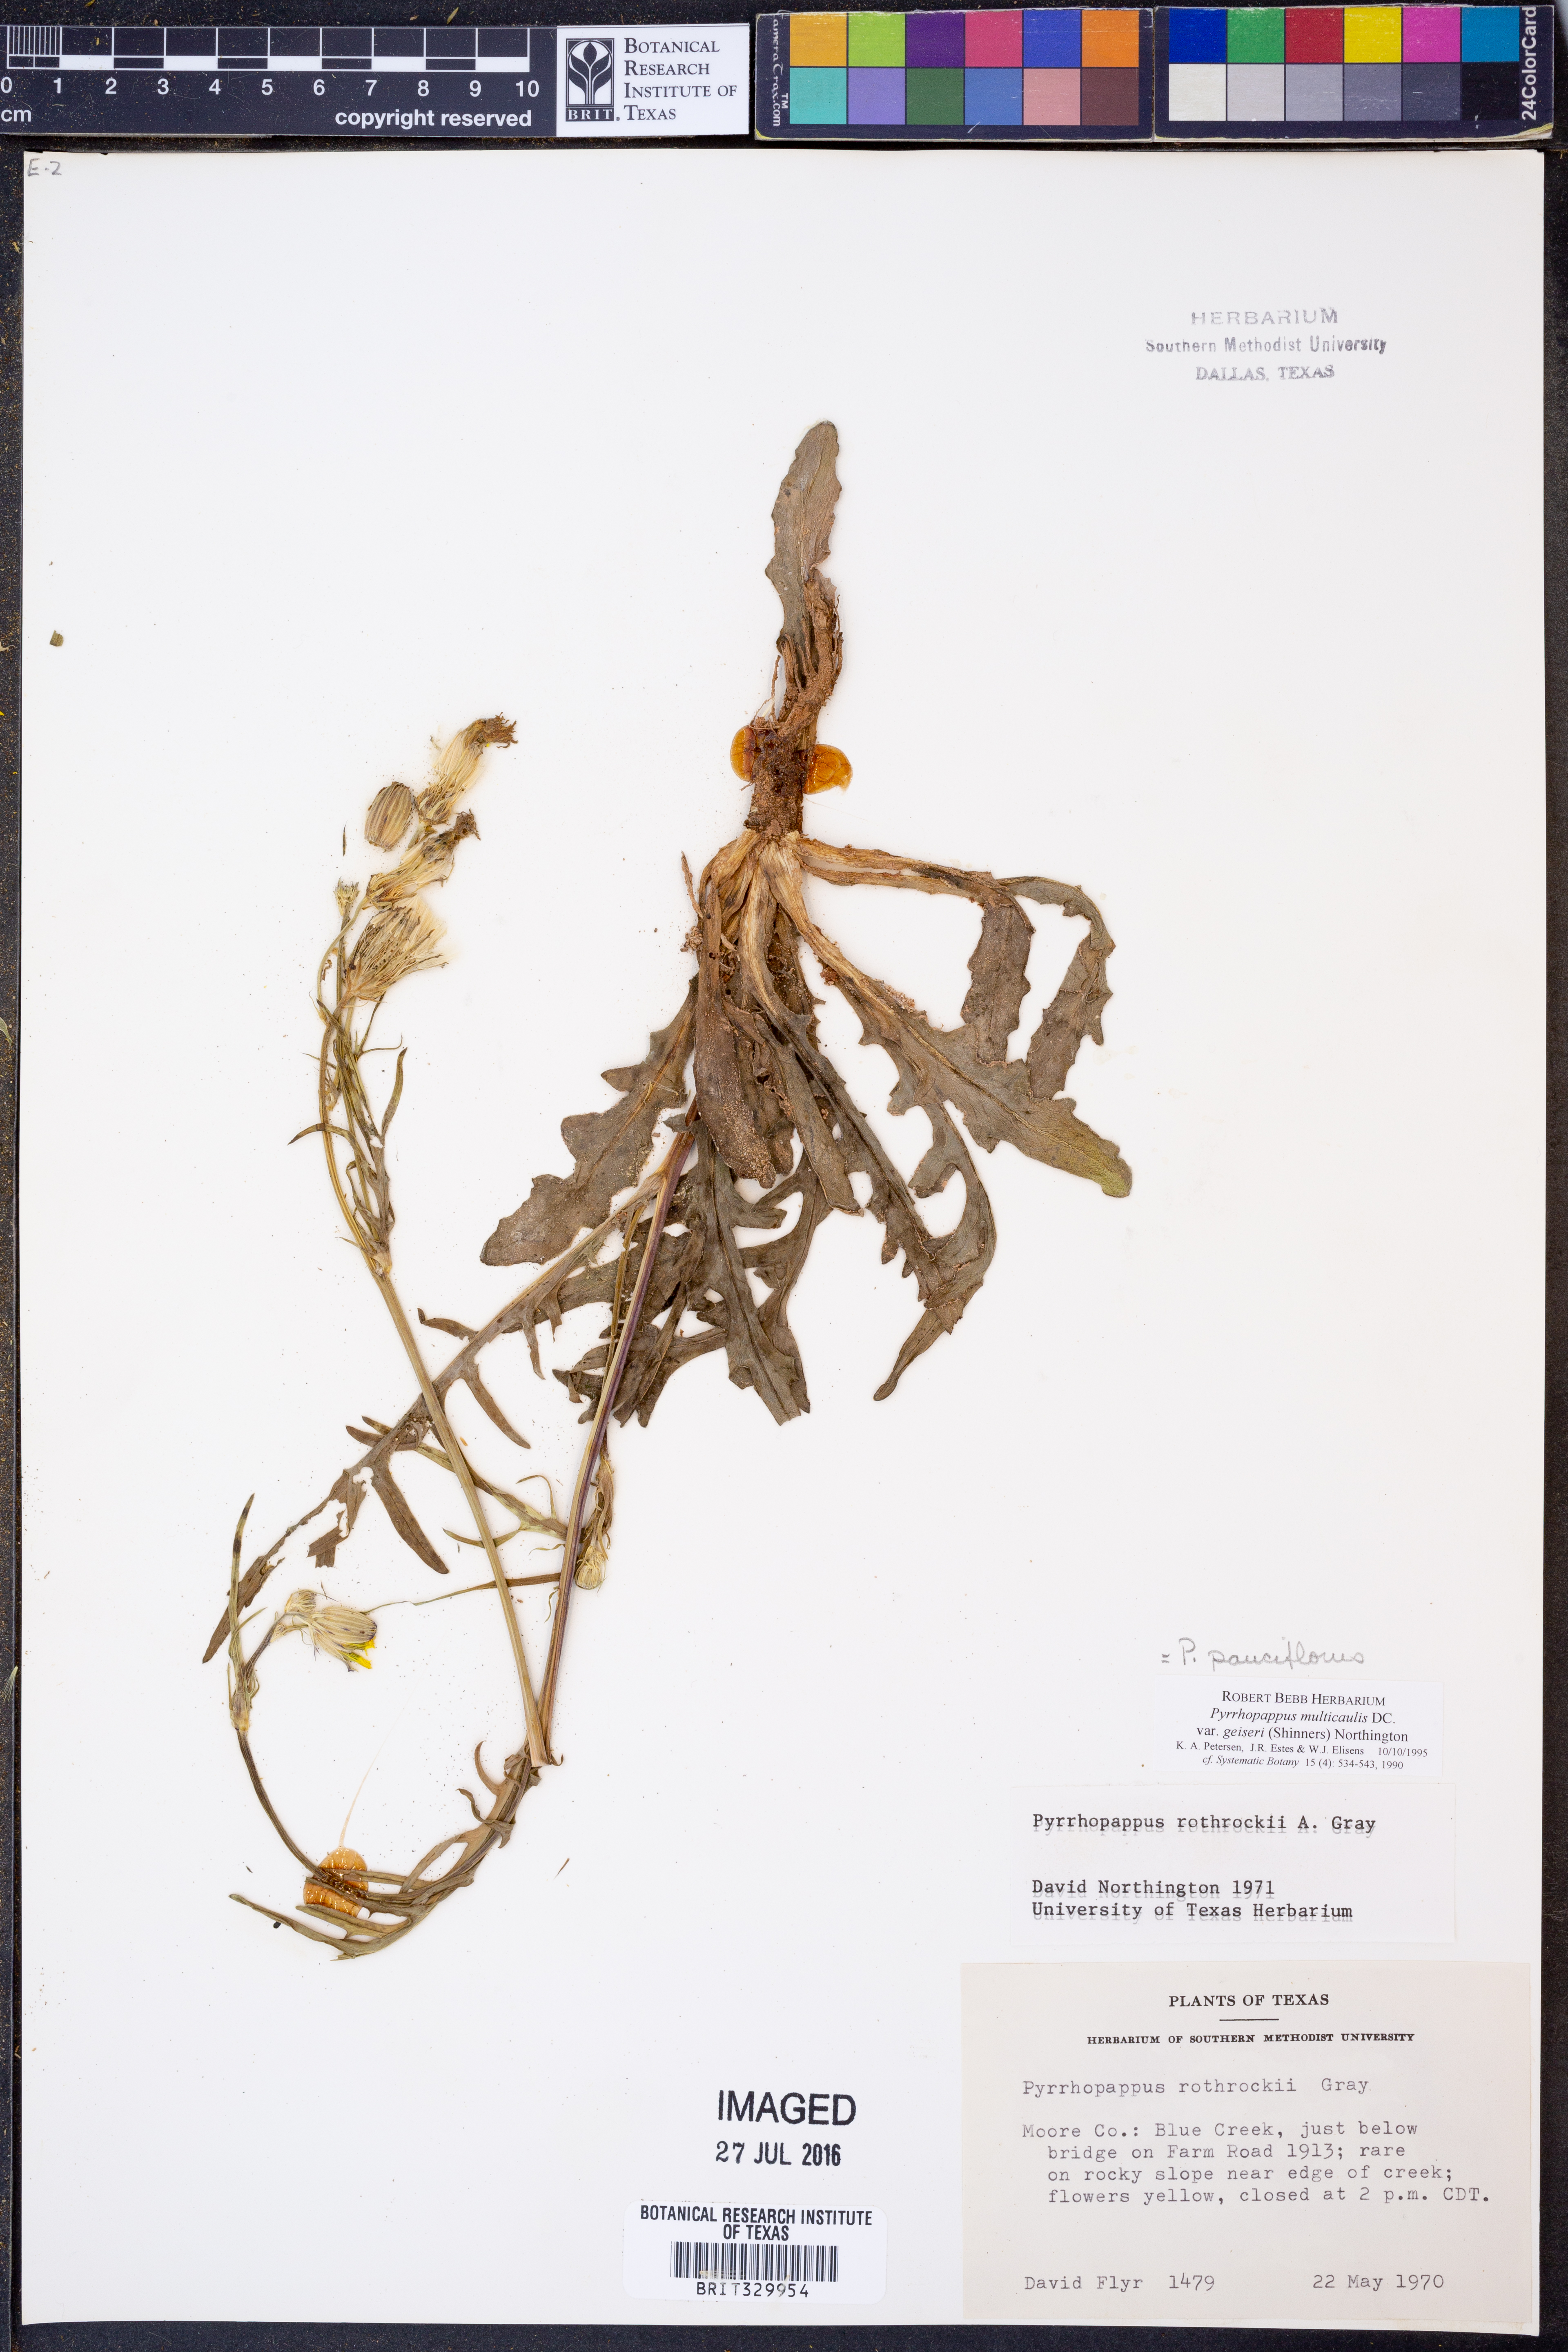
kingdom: Plantae
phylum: Tracheophyta
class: Magnoliopsida
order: Asterales
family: Asteraceae
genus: Pyrrhopappus
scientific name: Pyrrhopappus pauciflorus
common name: Texas false dandelion
